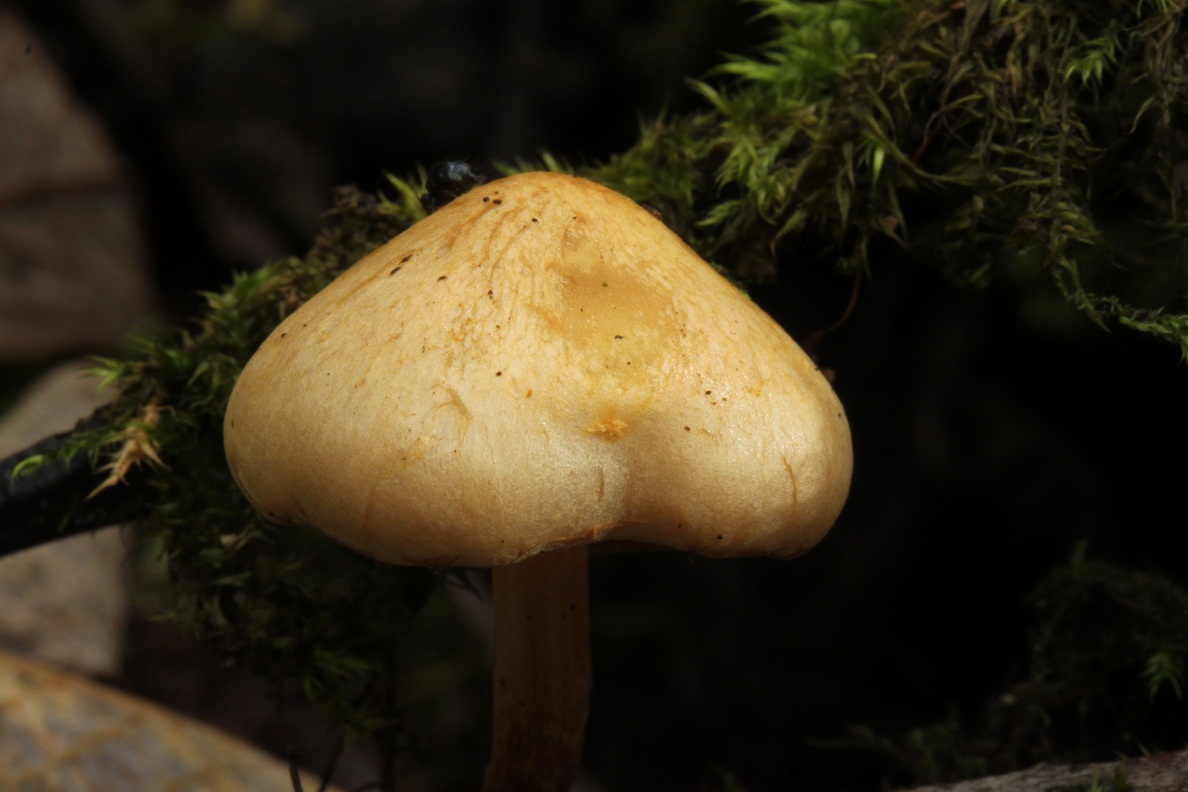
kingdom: Fungi
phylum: Basidiomycota
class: Agaricomycetes
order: Agaricales
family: Strophariaceae
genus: Pholiota
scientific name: Pholiota conissans
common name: pile-skælhat
